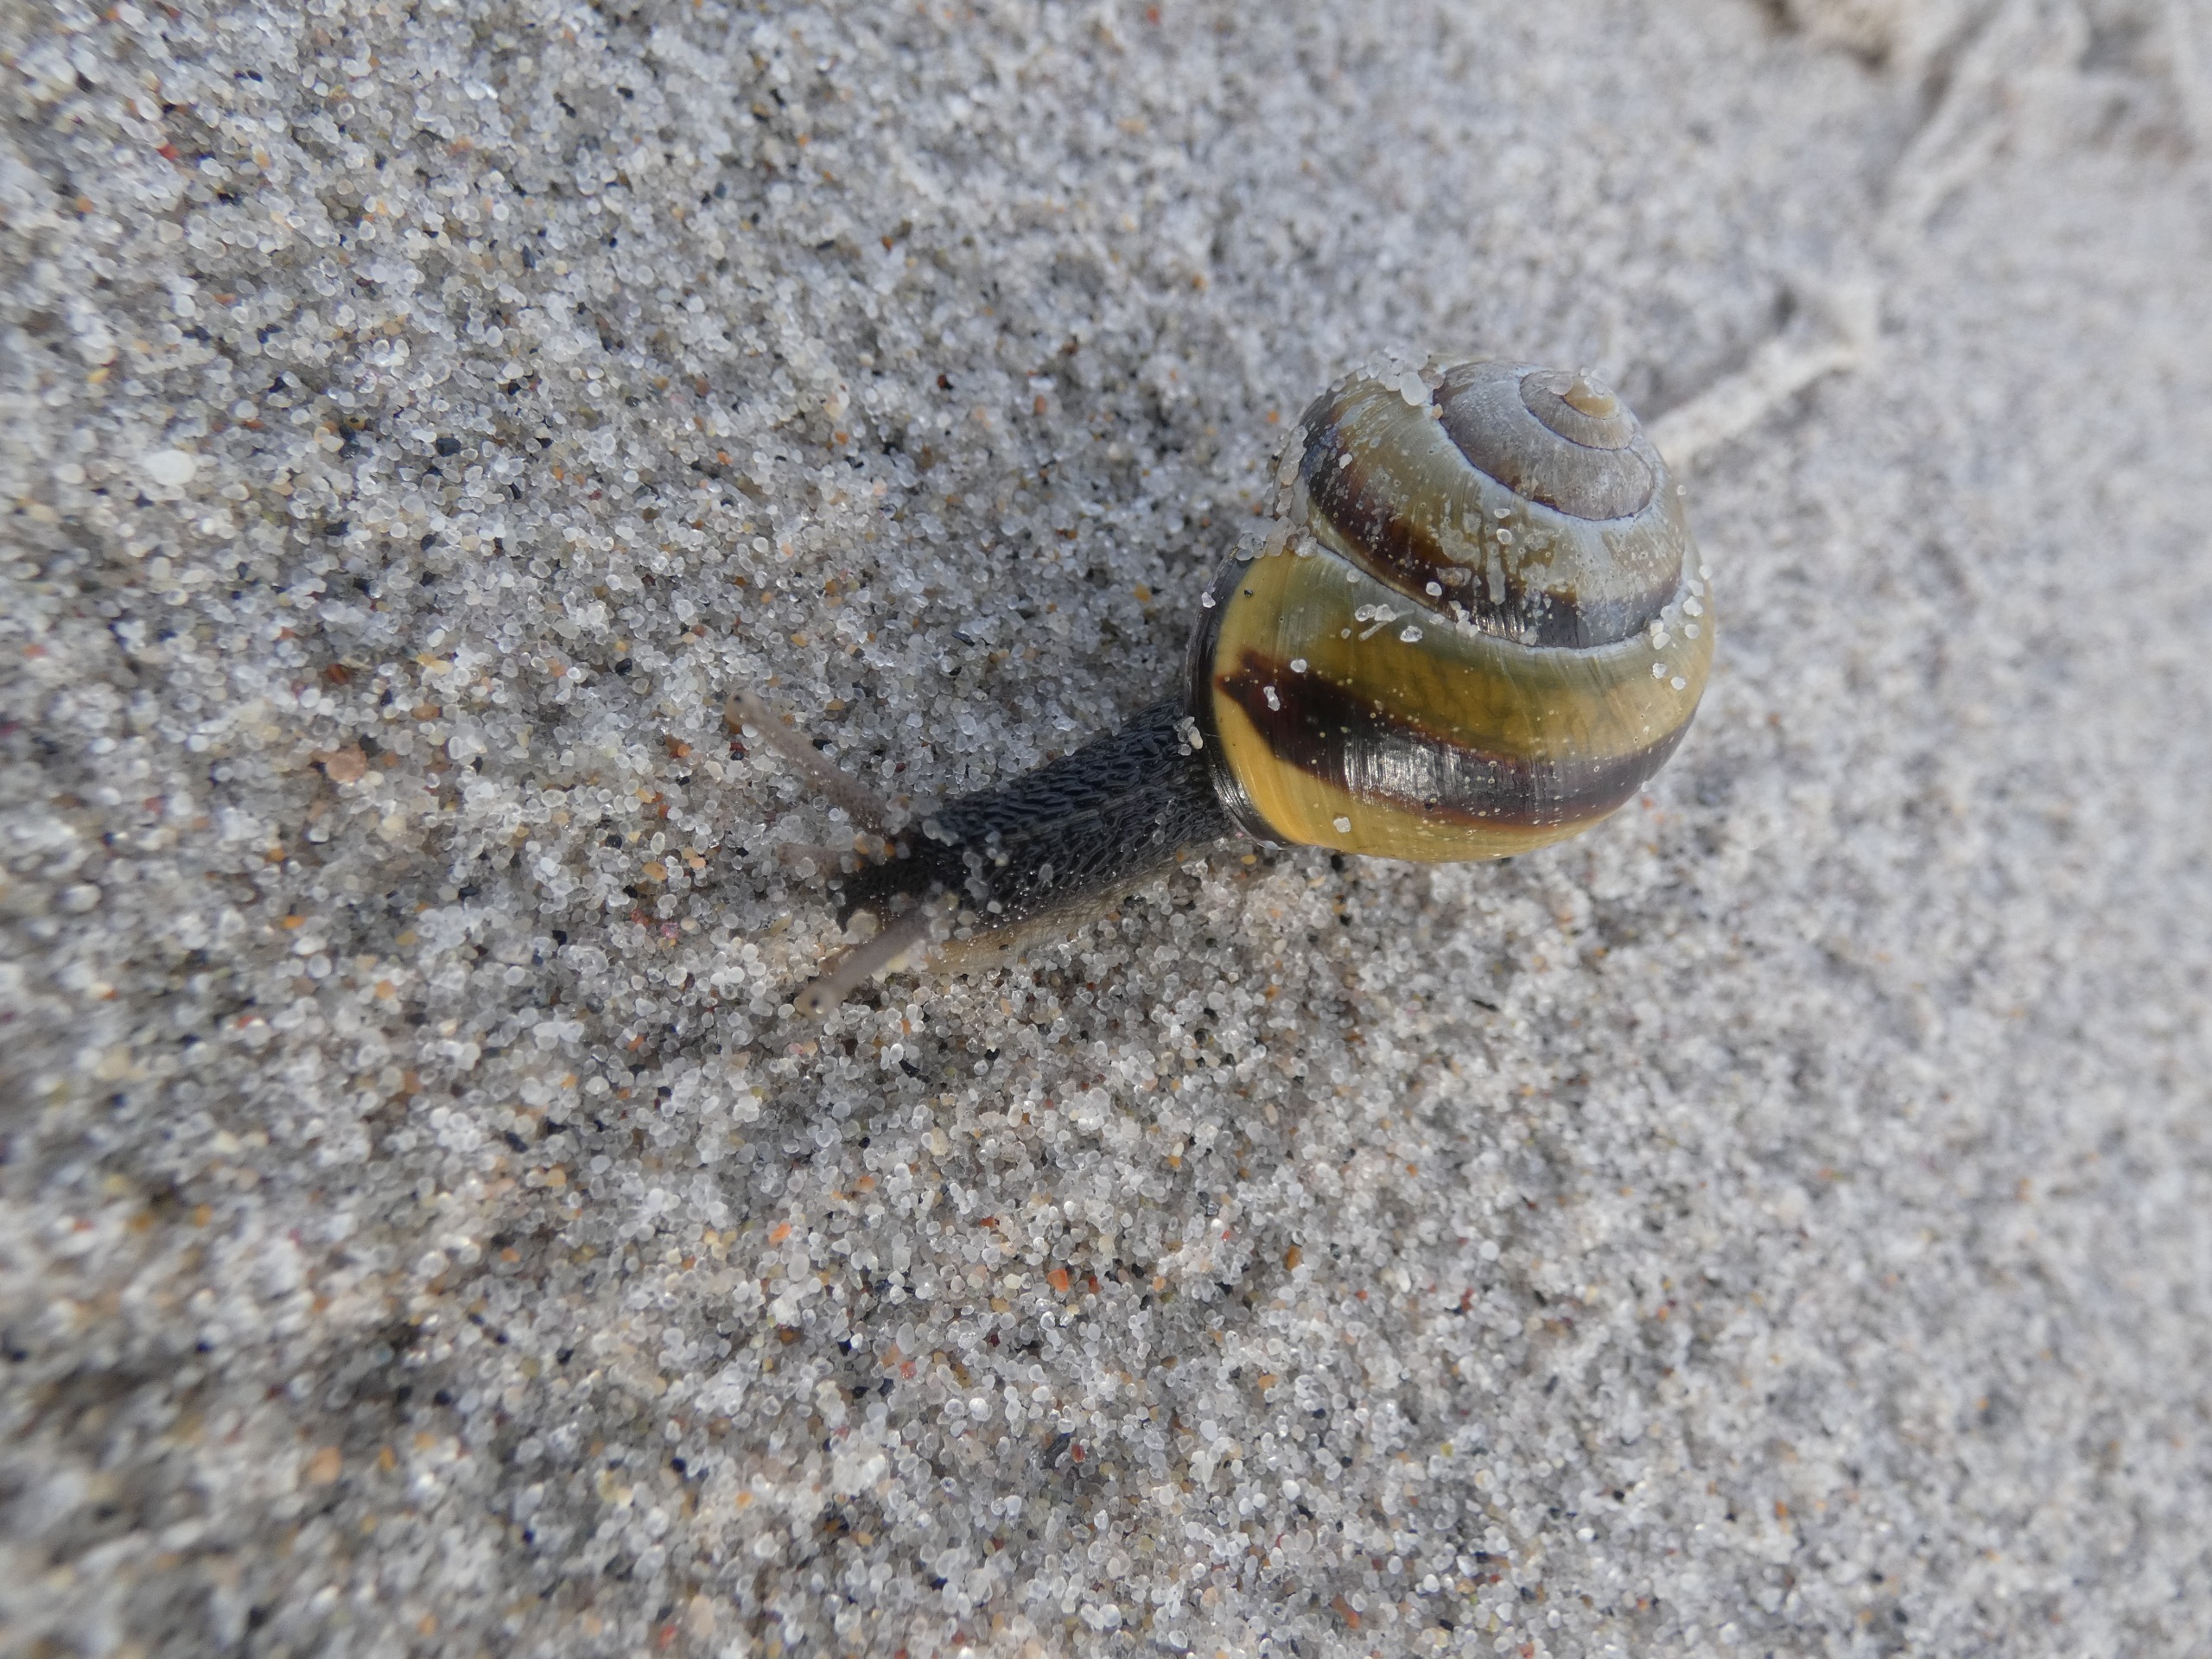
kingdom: Animalia
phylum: Mollusca
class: Gastropoda
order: Stylommatophora
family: Helicidae
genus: Cepaea
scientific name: Cepaea nemoralis
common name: Lundsnegl
